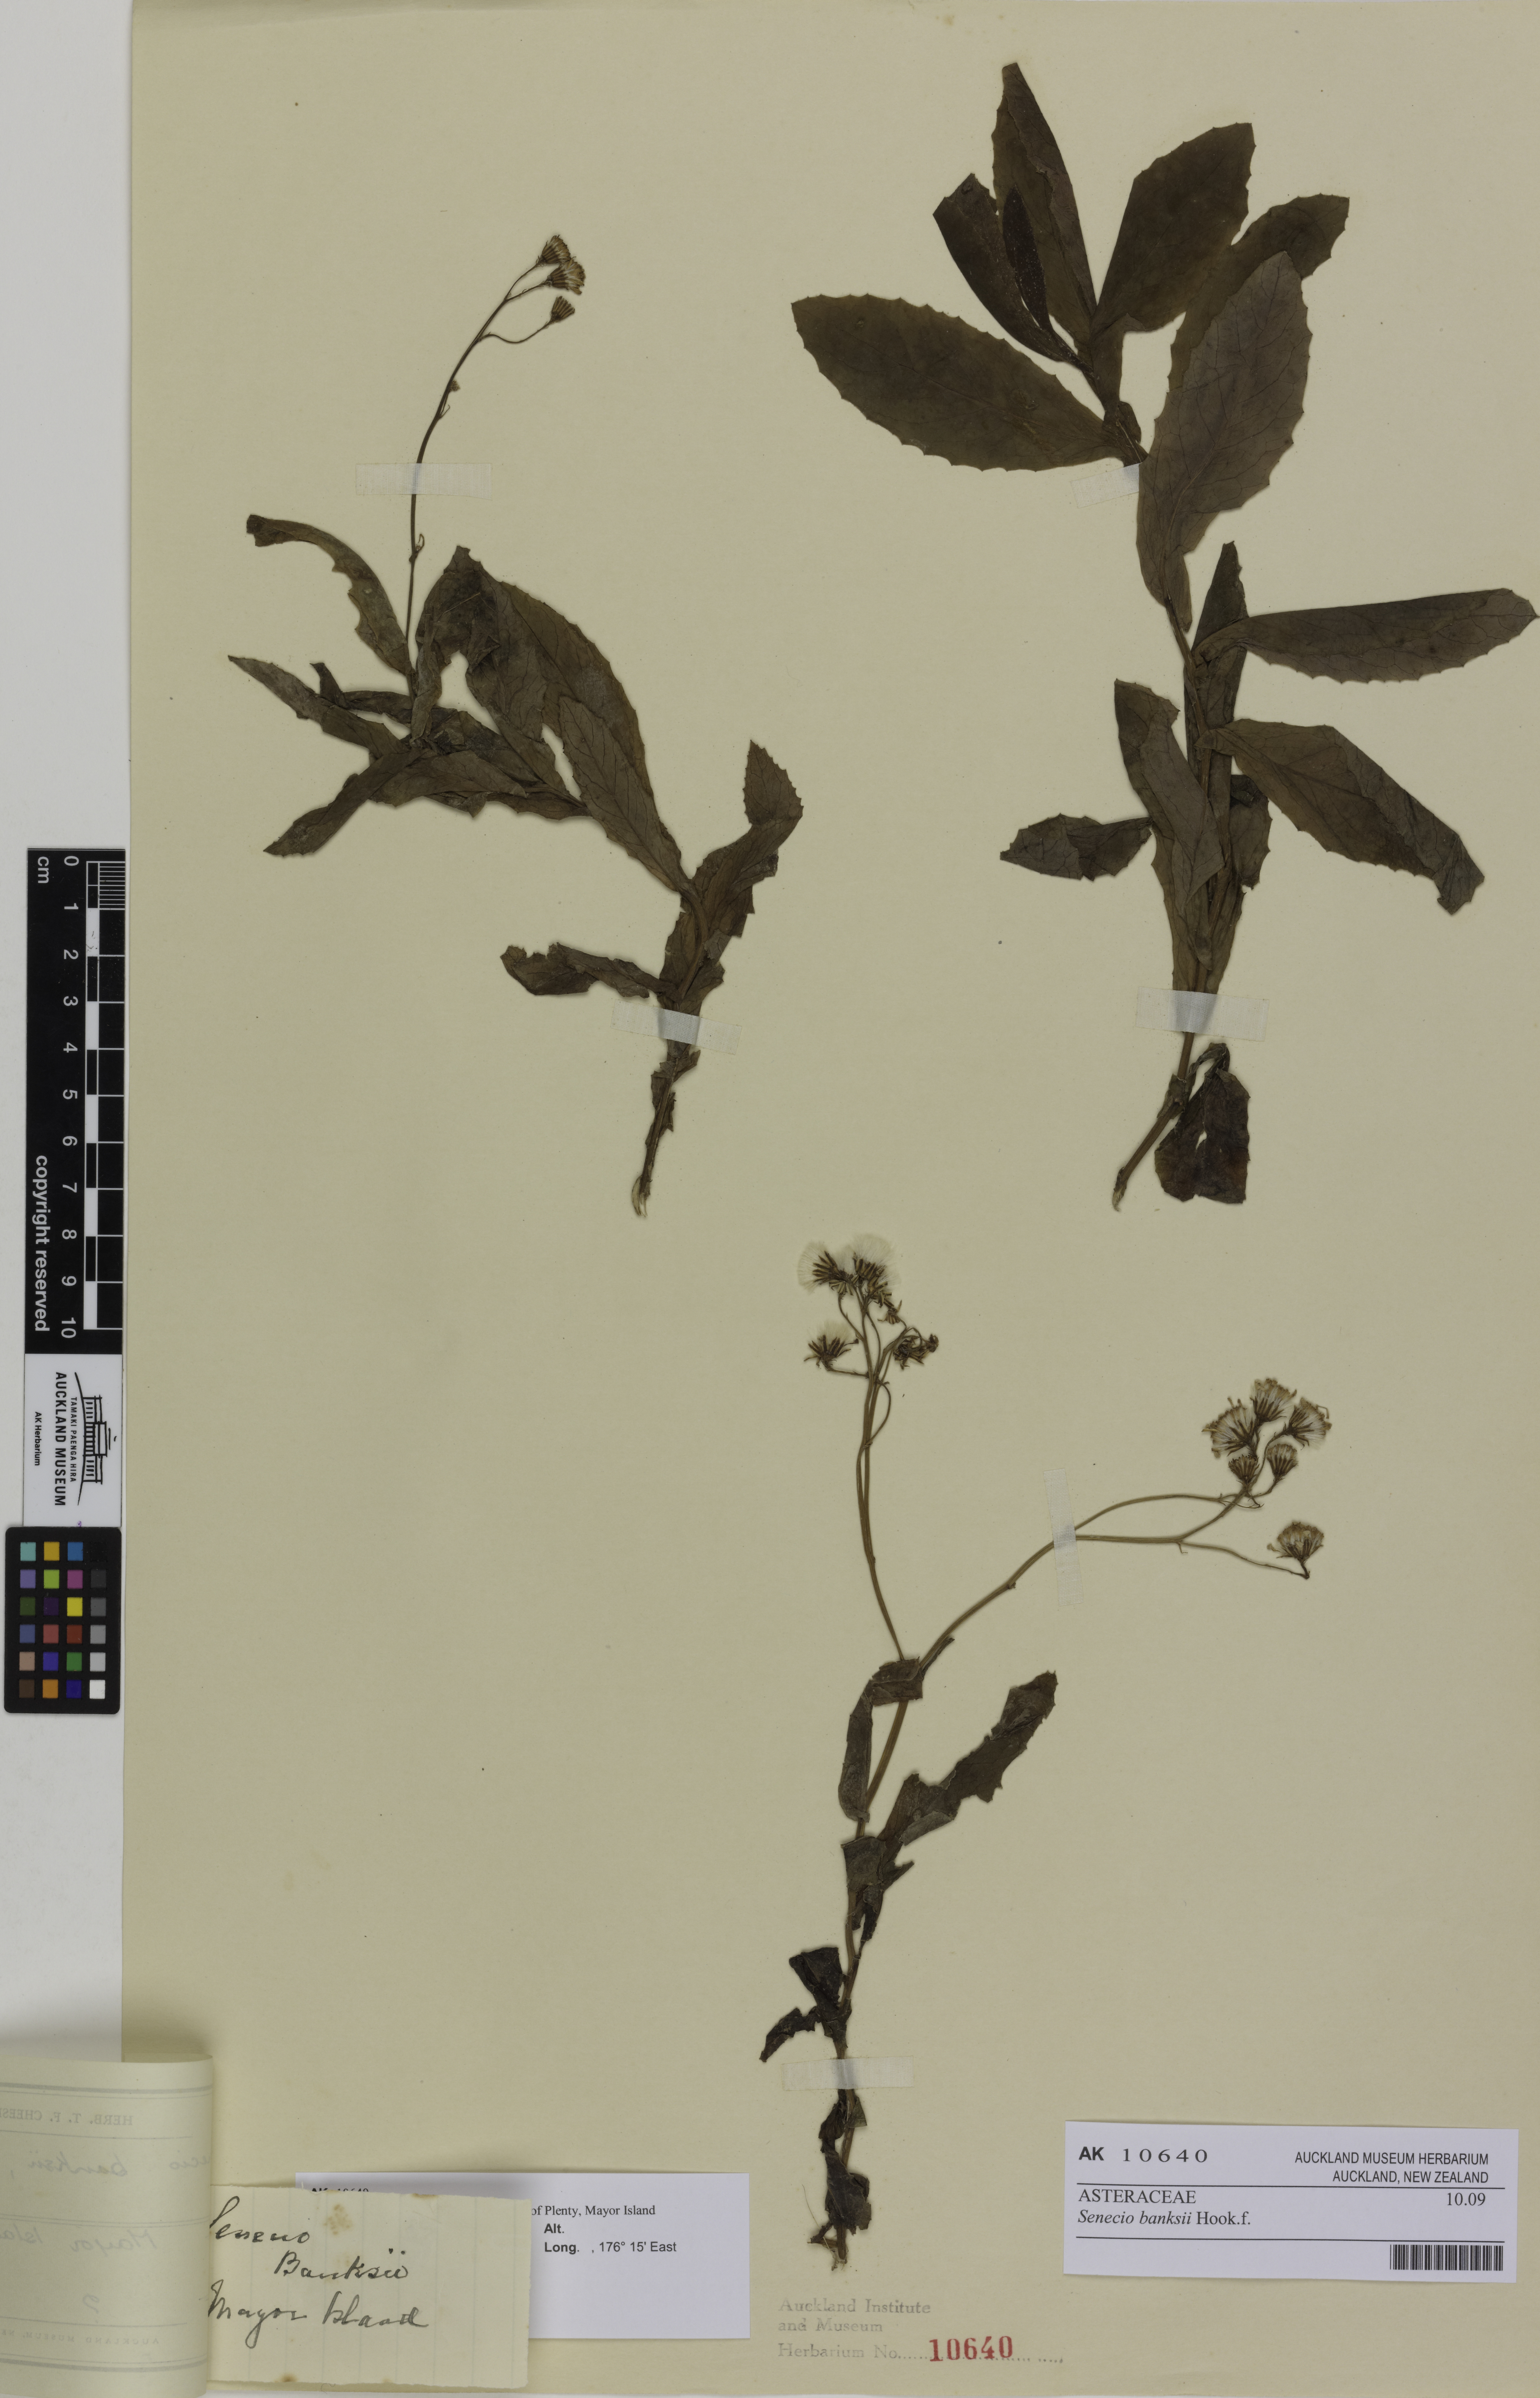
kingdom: Plantae
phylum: Tracheophyta
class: Magnoliopsida
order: Asterales
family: Asteraceae
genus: Senecio
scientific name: Senecio banksii
